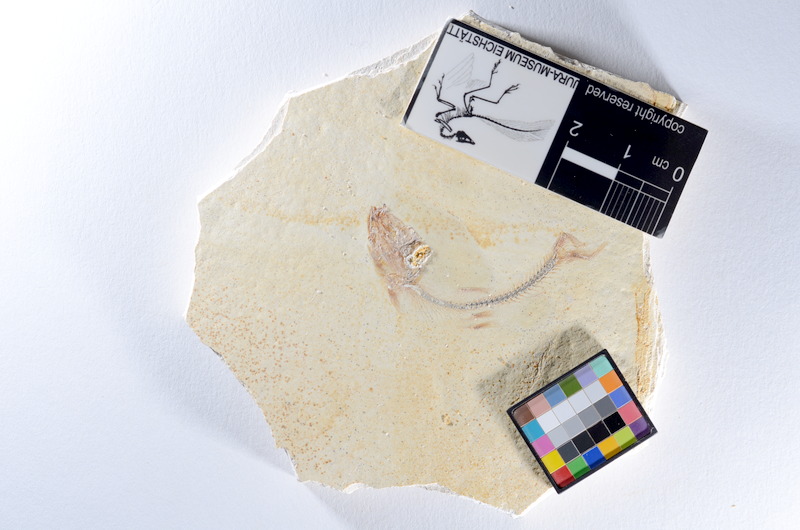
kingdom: Animalia
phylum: Chordata
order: Salmoniformes
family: Orthogonikleithridae
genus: Orthogonikleithrus
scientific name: Orthogonikleithrus hoelli
